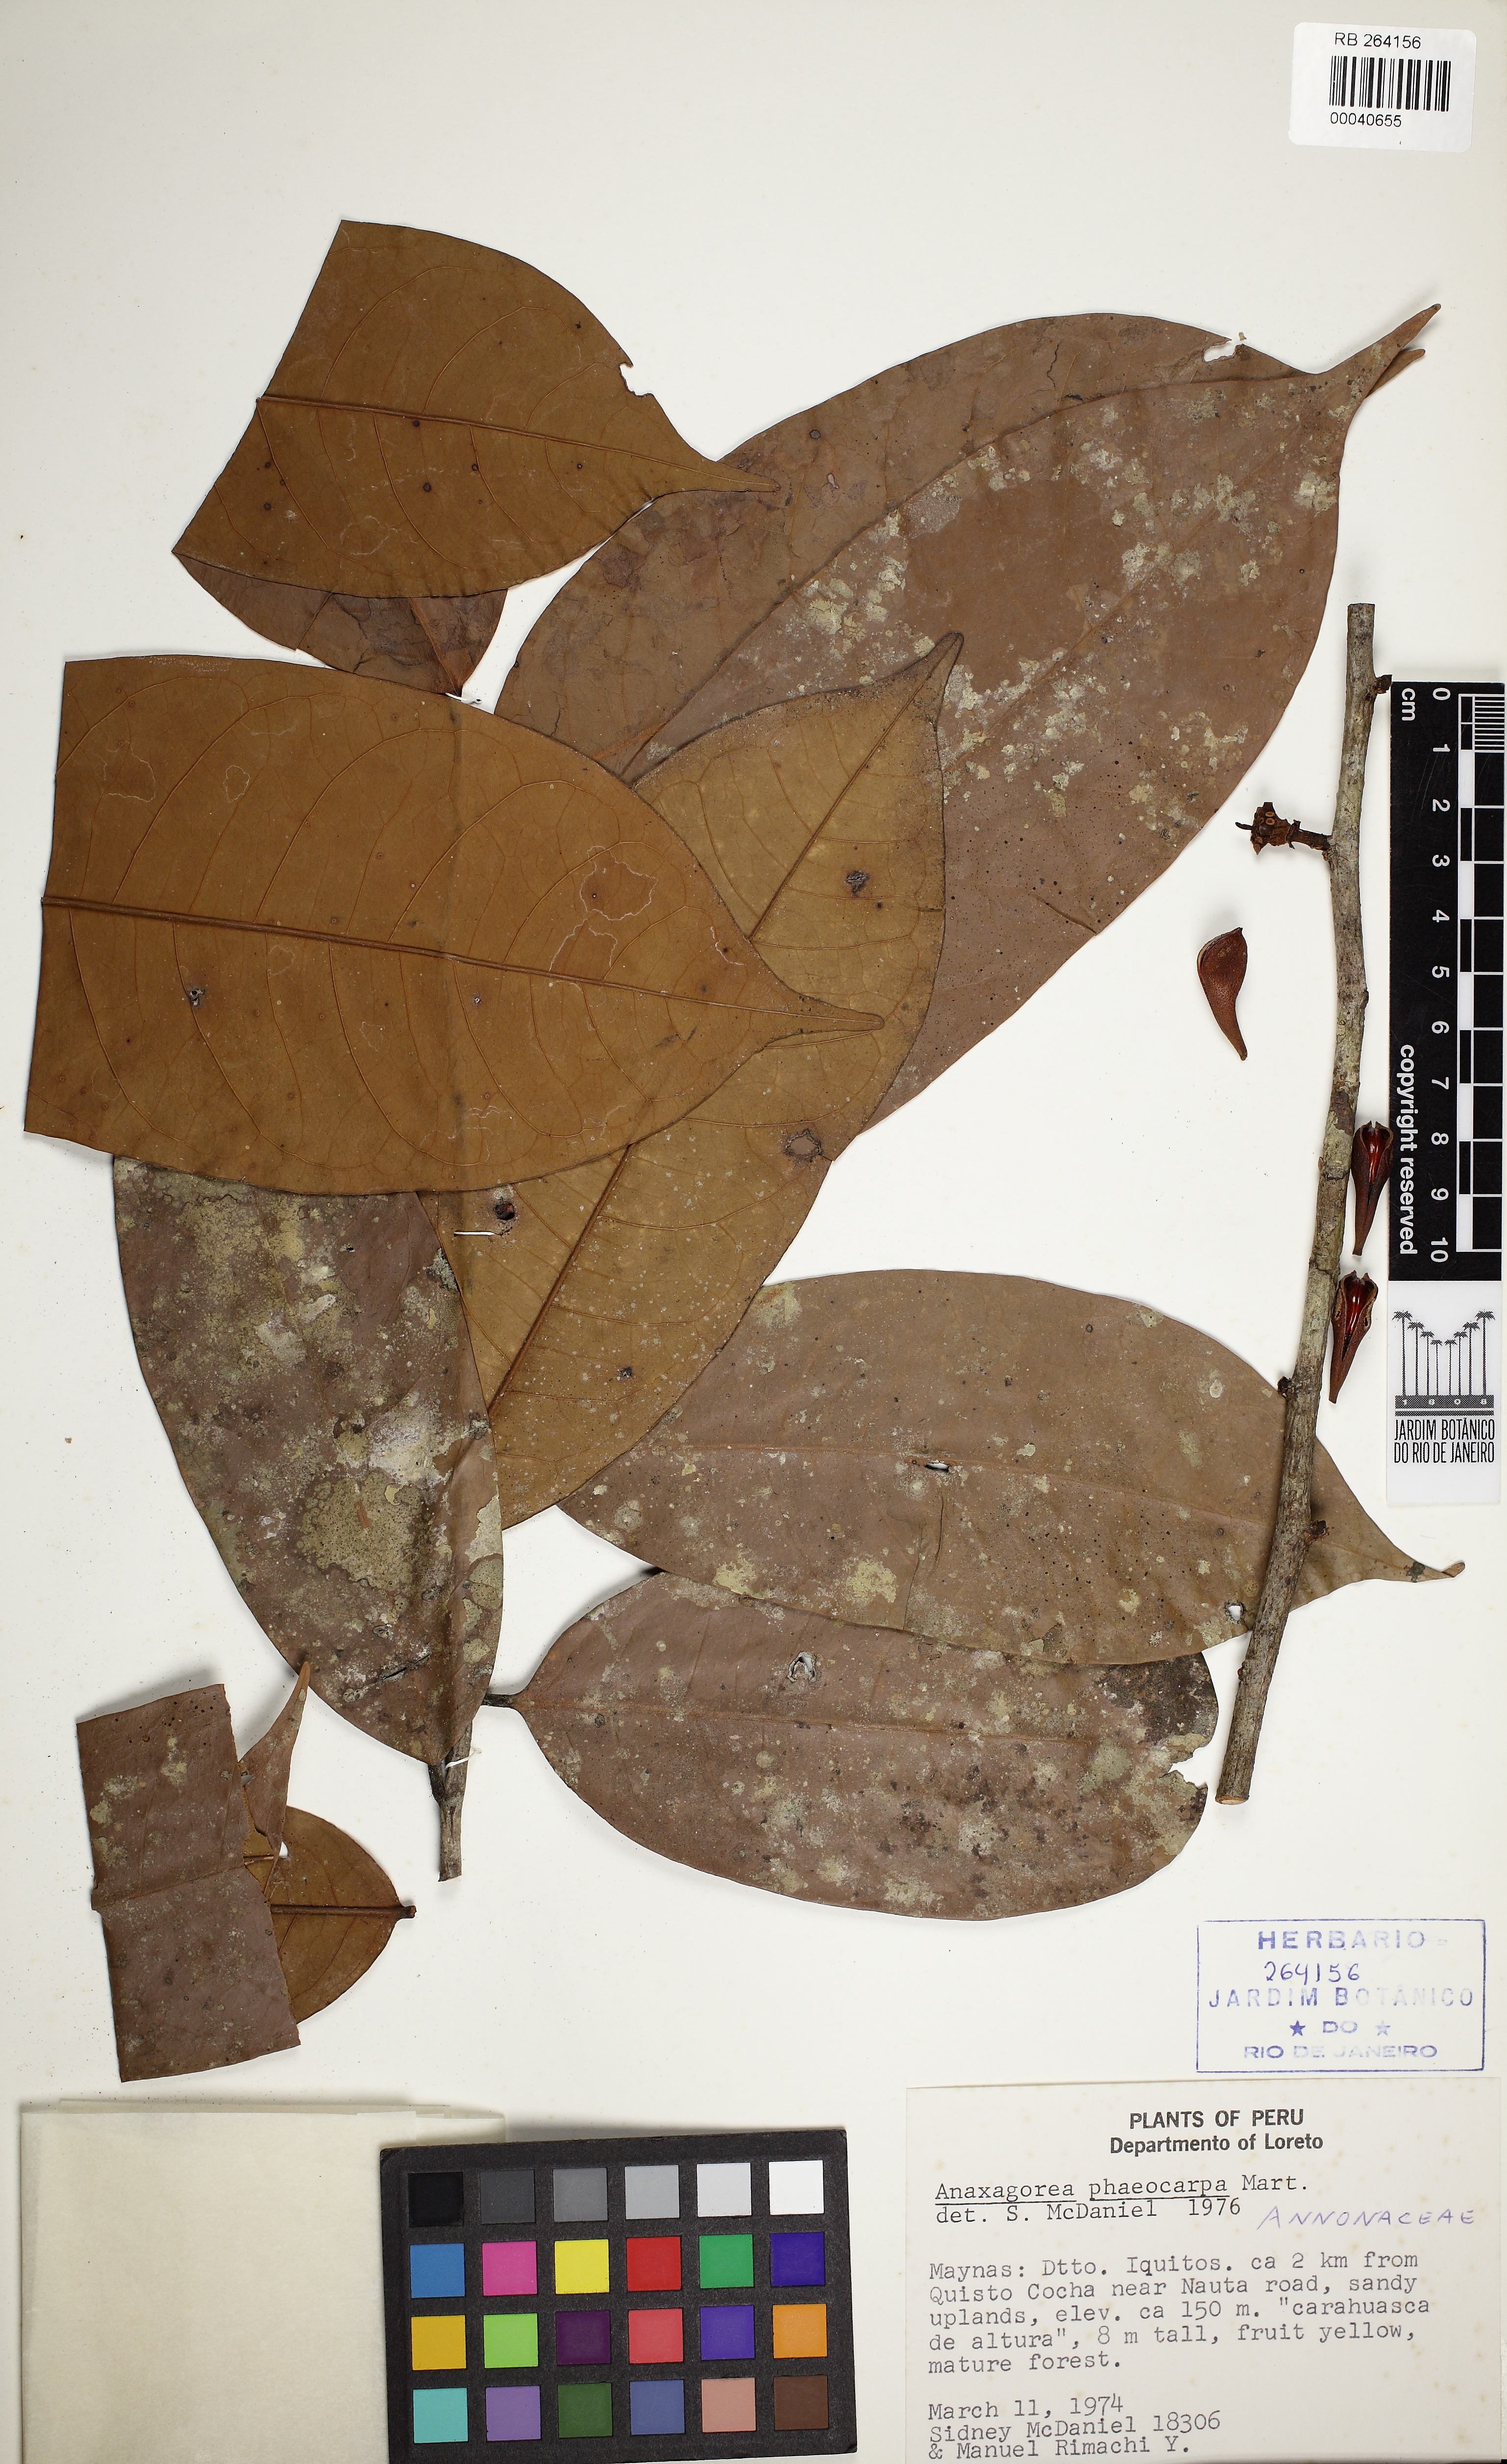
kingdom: Plantae
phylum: Tracheophyta
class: Magnoliopsida
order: Magnoliales
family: Annonaceae
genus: Anaxagorea
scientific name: Anaxagorea prinoides
